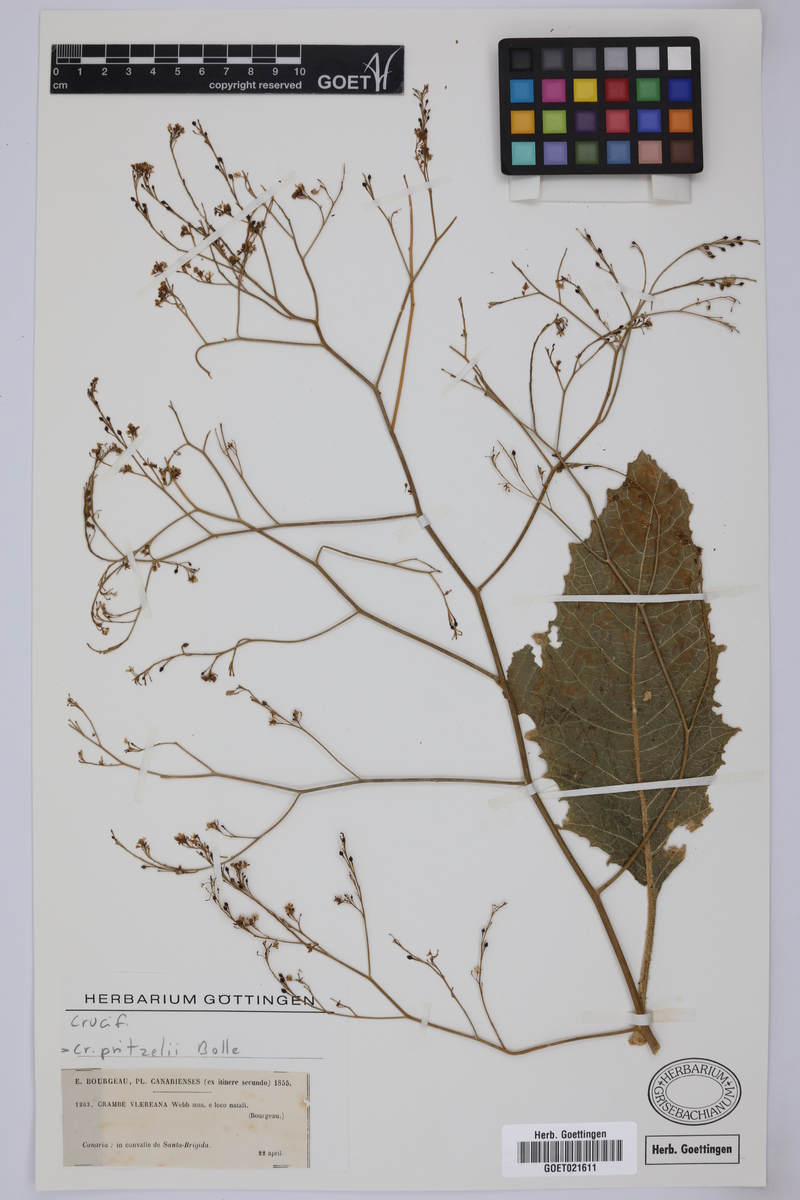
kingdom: Plantae
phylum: Tracheophyta
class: Magnoliopsida
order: Brassicales
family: Brassicaceae
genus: Crambe
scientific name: Crambe pritzelii
